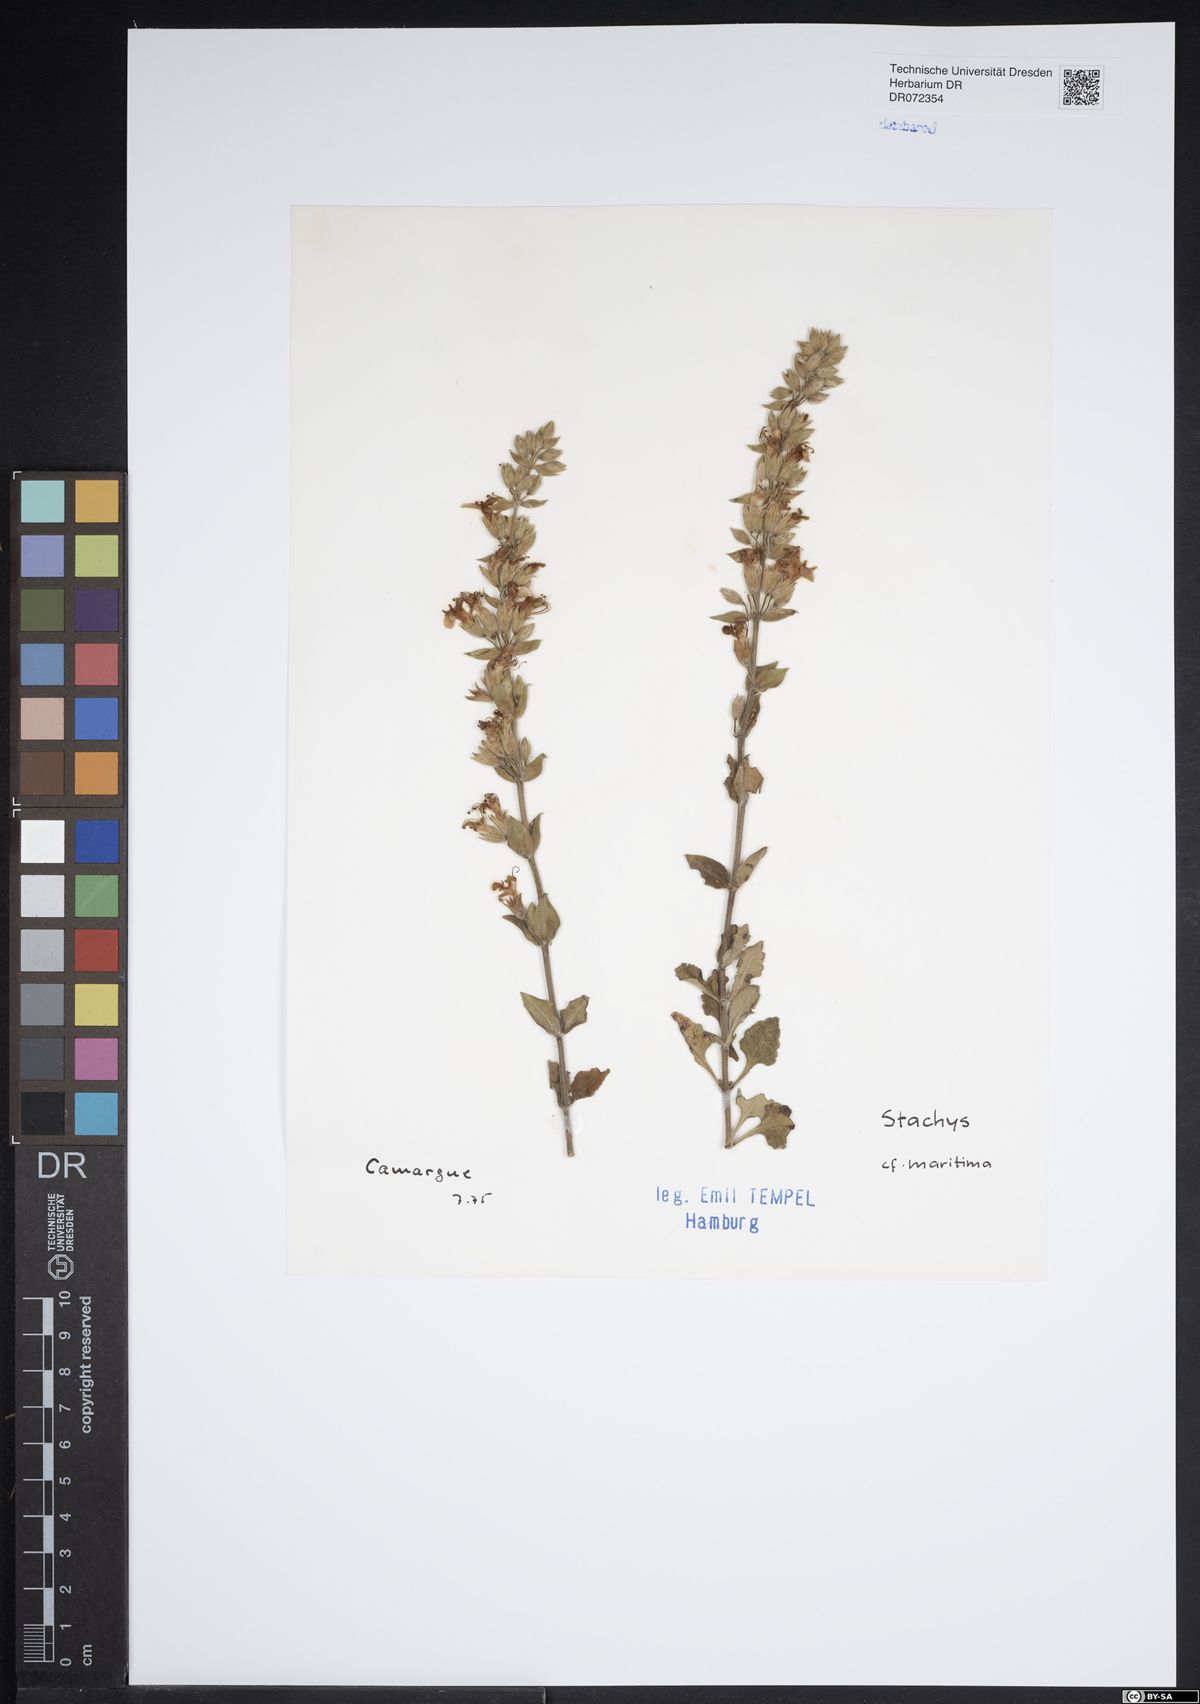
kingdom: Plantae
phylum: Tracheophyta
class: Magnoliopsida
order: Lamiales
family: Lamiaceae
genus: Stachys
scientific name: Stachys maritima
